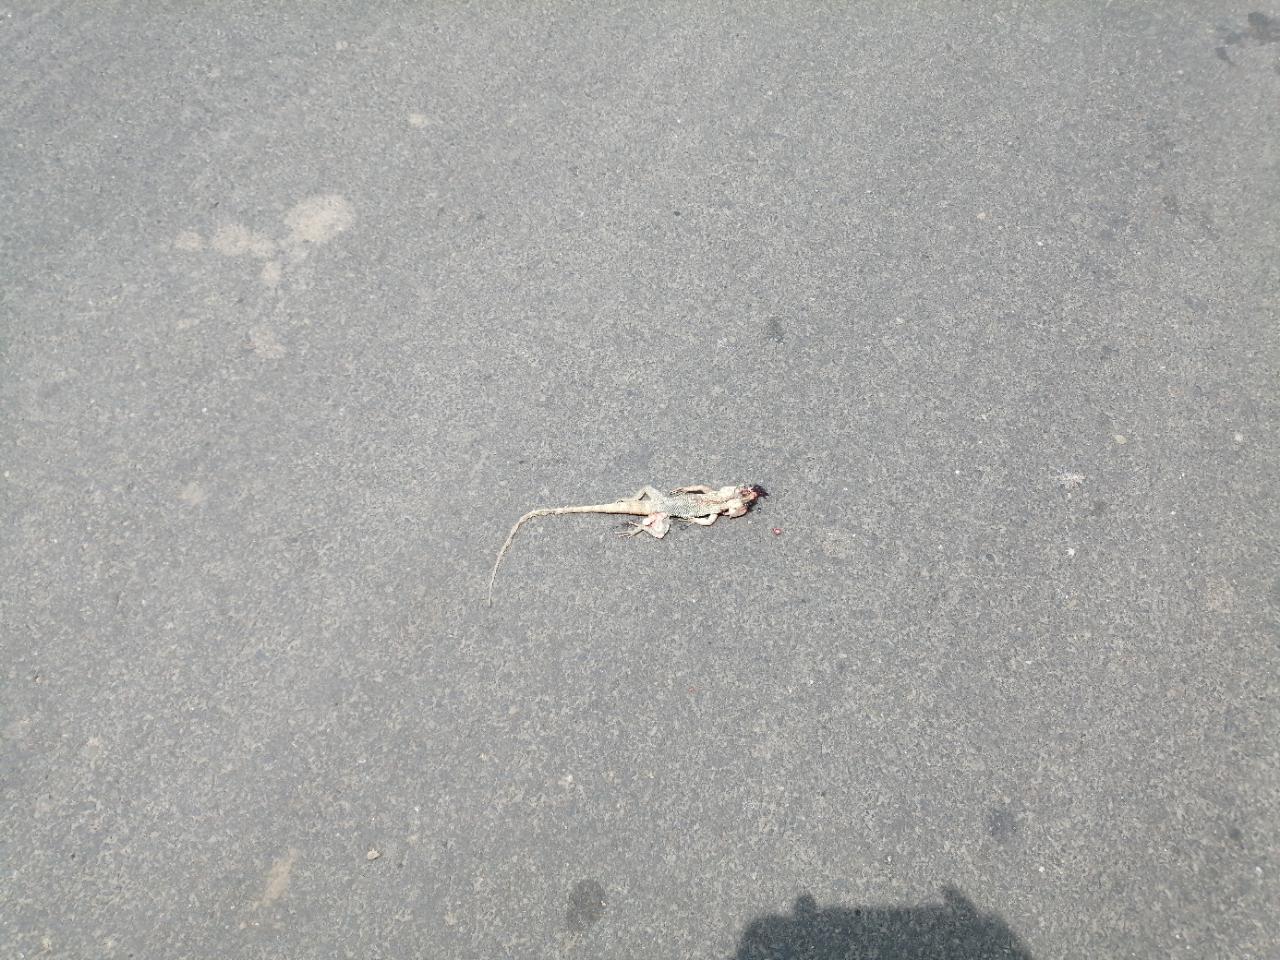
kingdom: Animalia
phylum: Chordata
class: Squamata
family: Lacertidae
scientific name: Lacertidae
